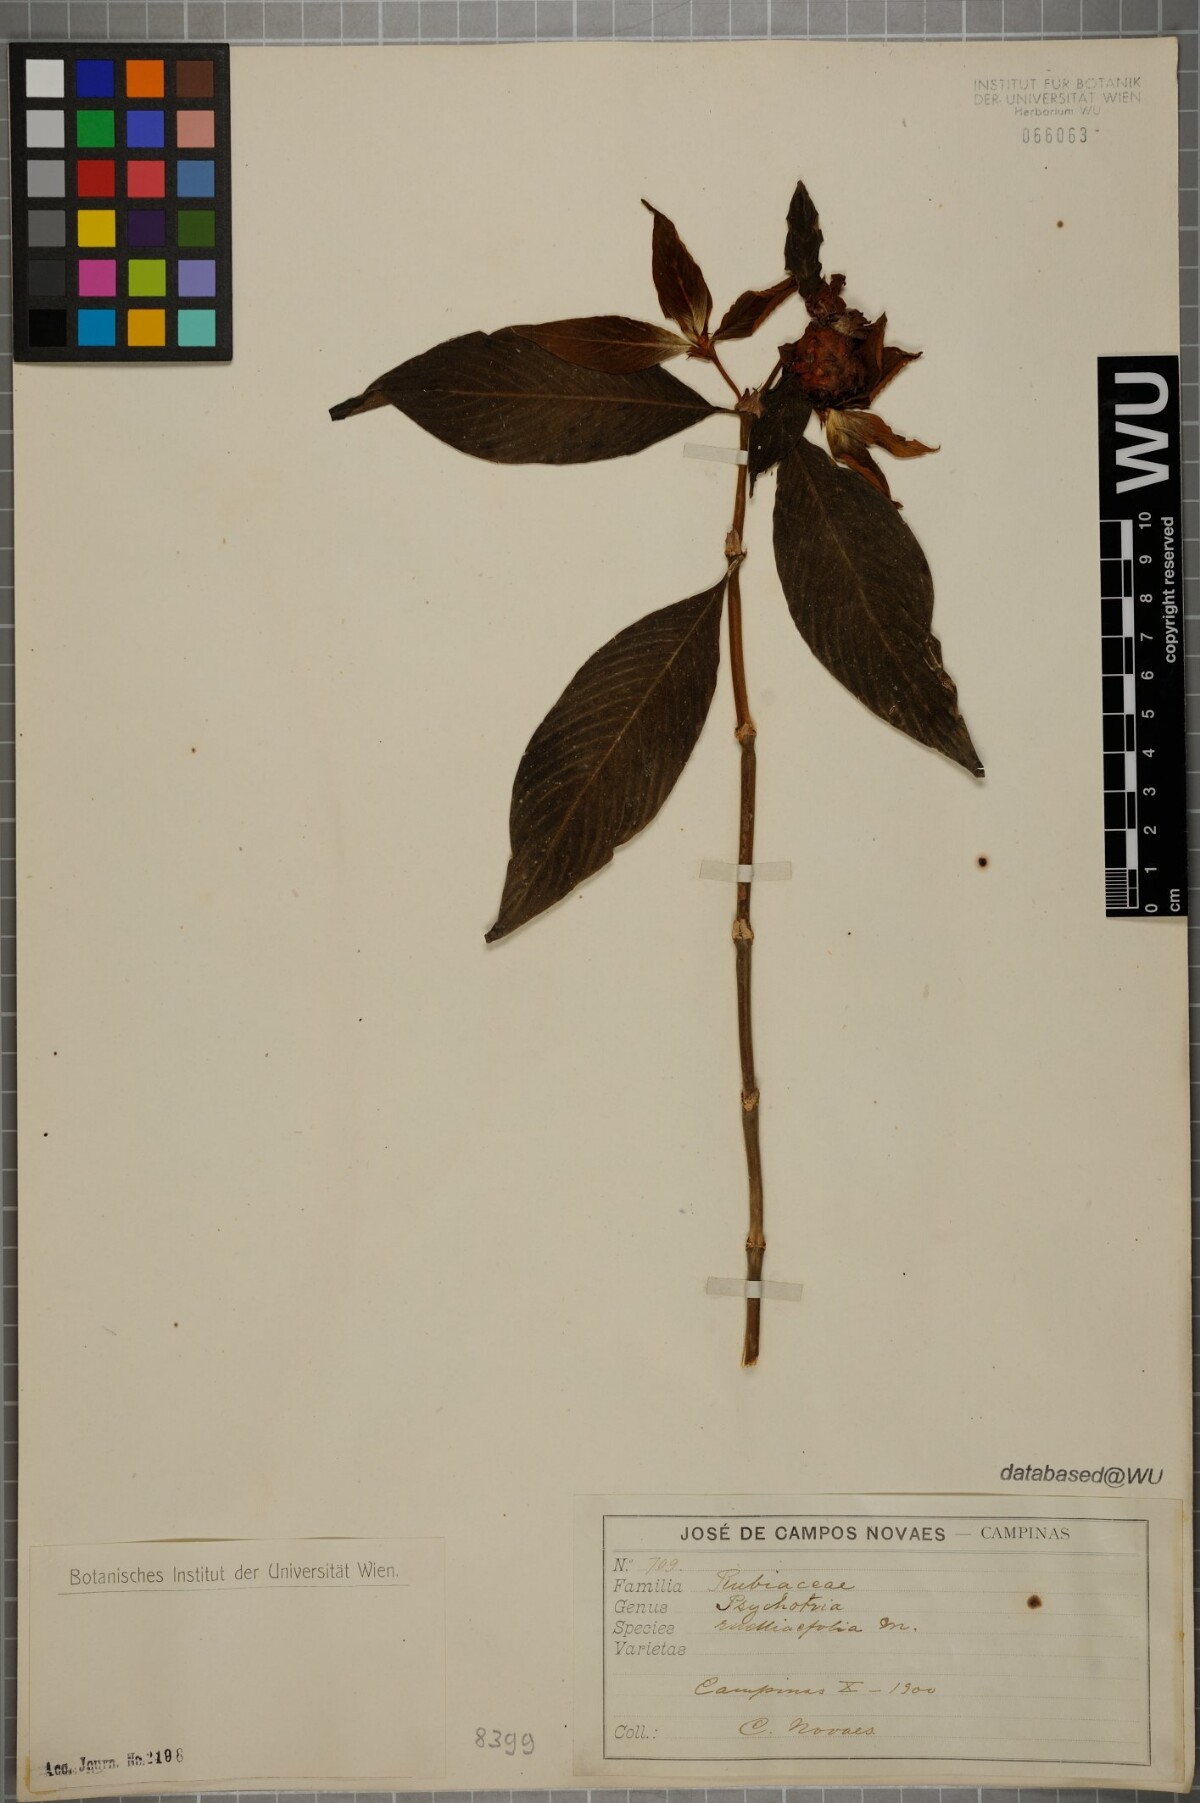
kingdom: Plantae
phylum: Tracheophyta
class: Magnoliopsida
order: Gentianales
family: Rubiaceae
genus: Palicourea
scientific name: Palicourea ruelliifolia
